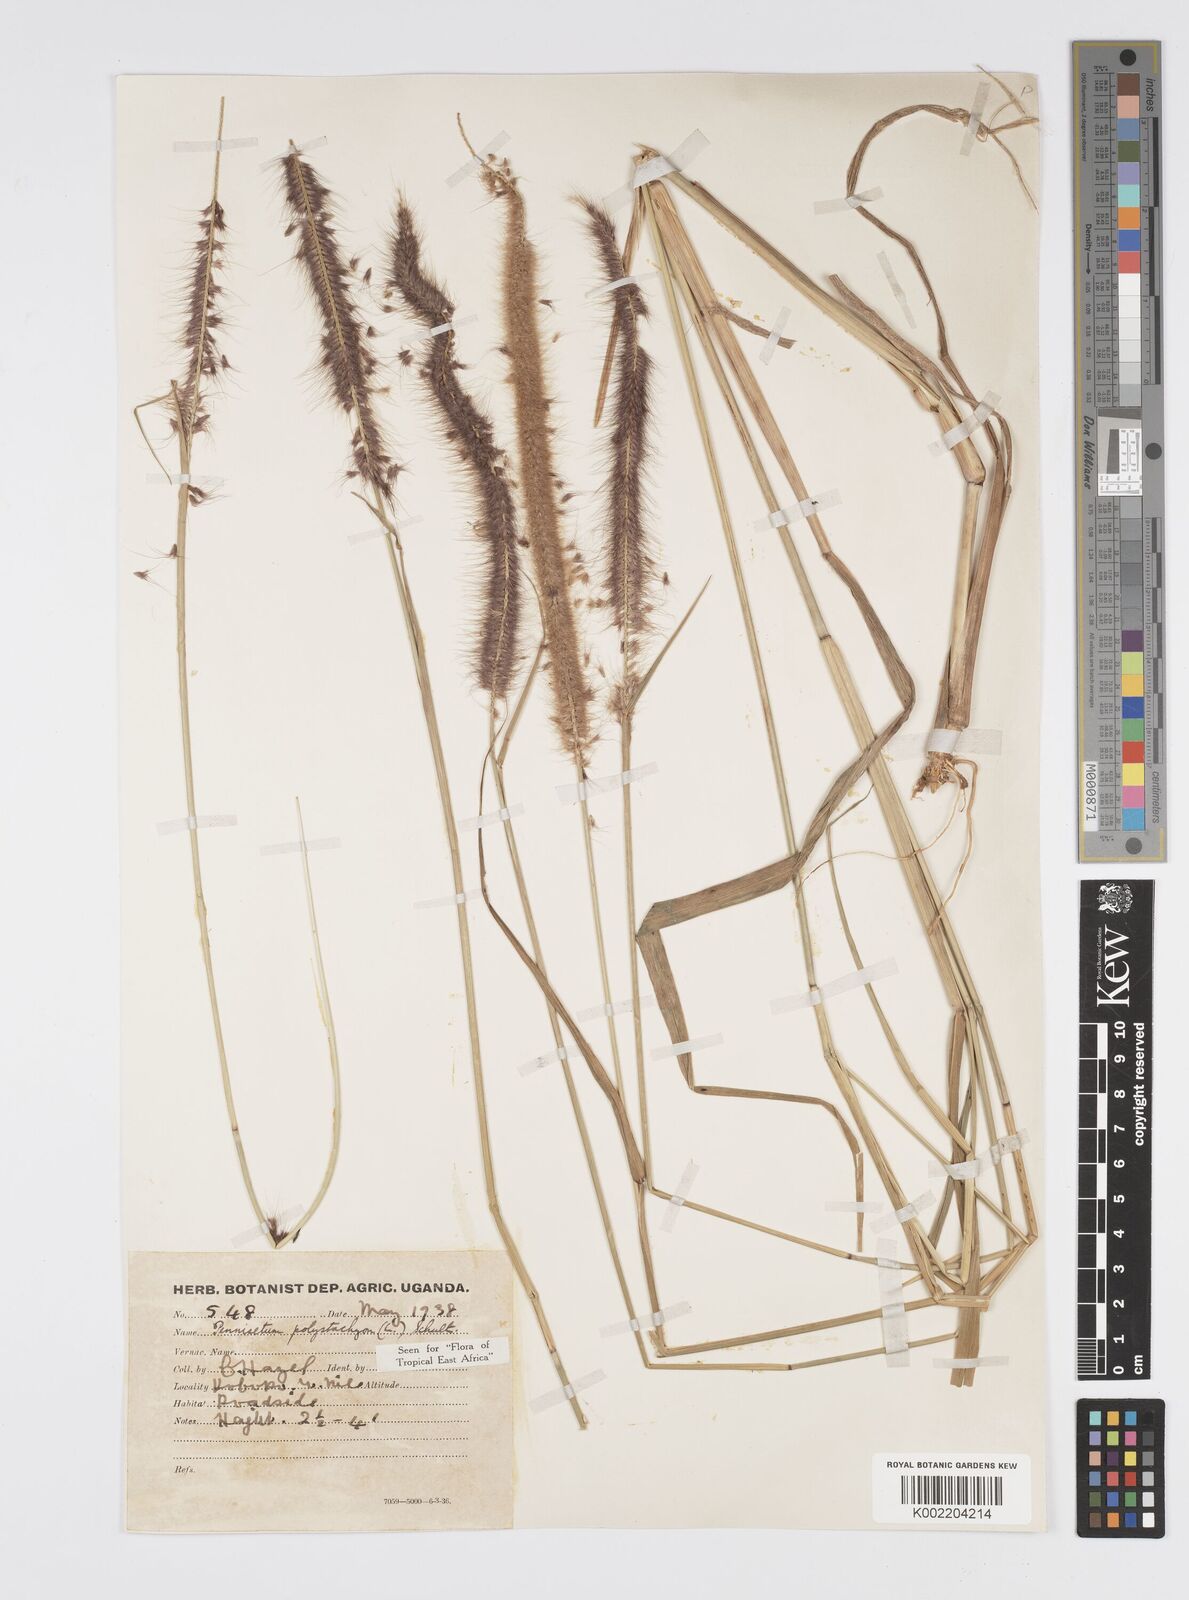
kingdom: Plantae
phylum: Tracheophyta
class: Liliopsida
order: Poales
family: Poaceae
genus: Setaria
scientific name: Setaria parviflora
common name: Knotroot bristle-grass
